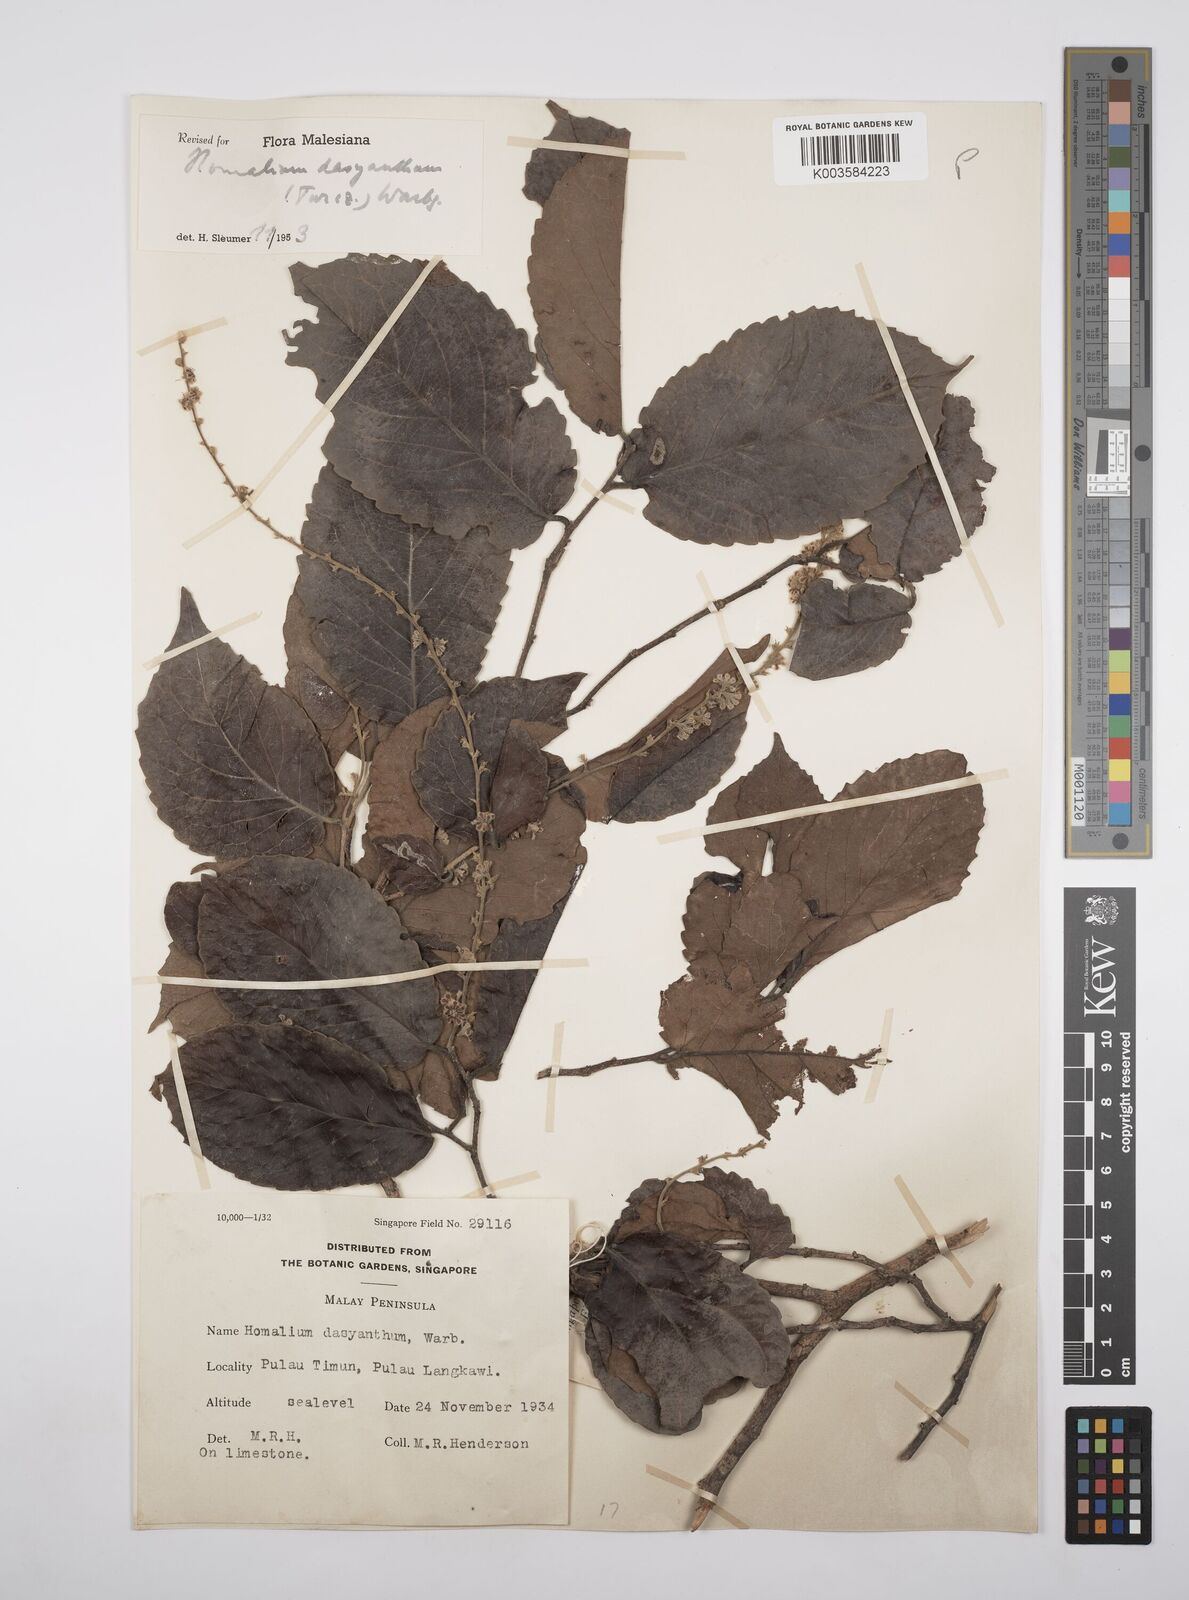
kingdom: Plantae
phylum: Tracheophyta
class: Magnoliopsida
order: Malpighiales
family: Salicaceae
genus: Homalium
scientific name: Homalium dasyanthum
